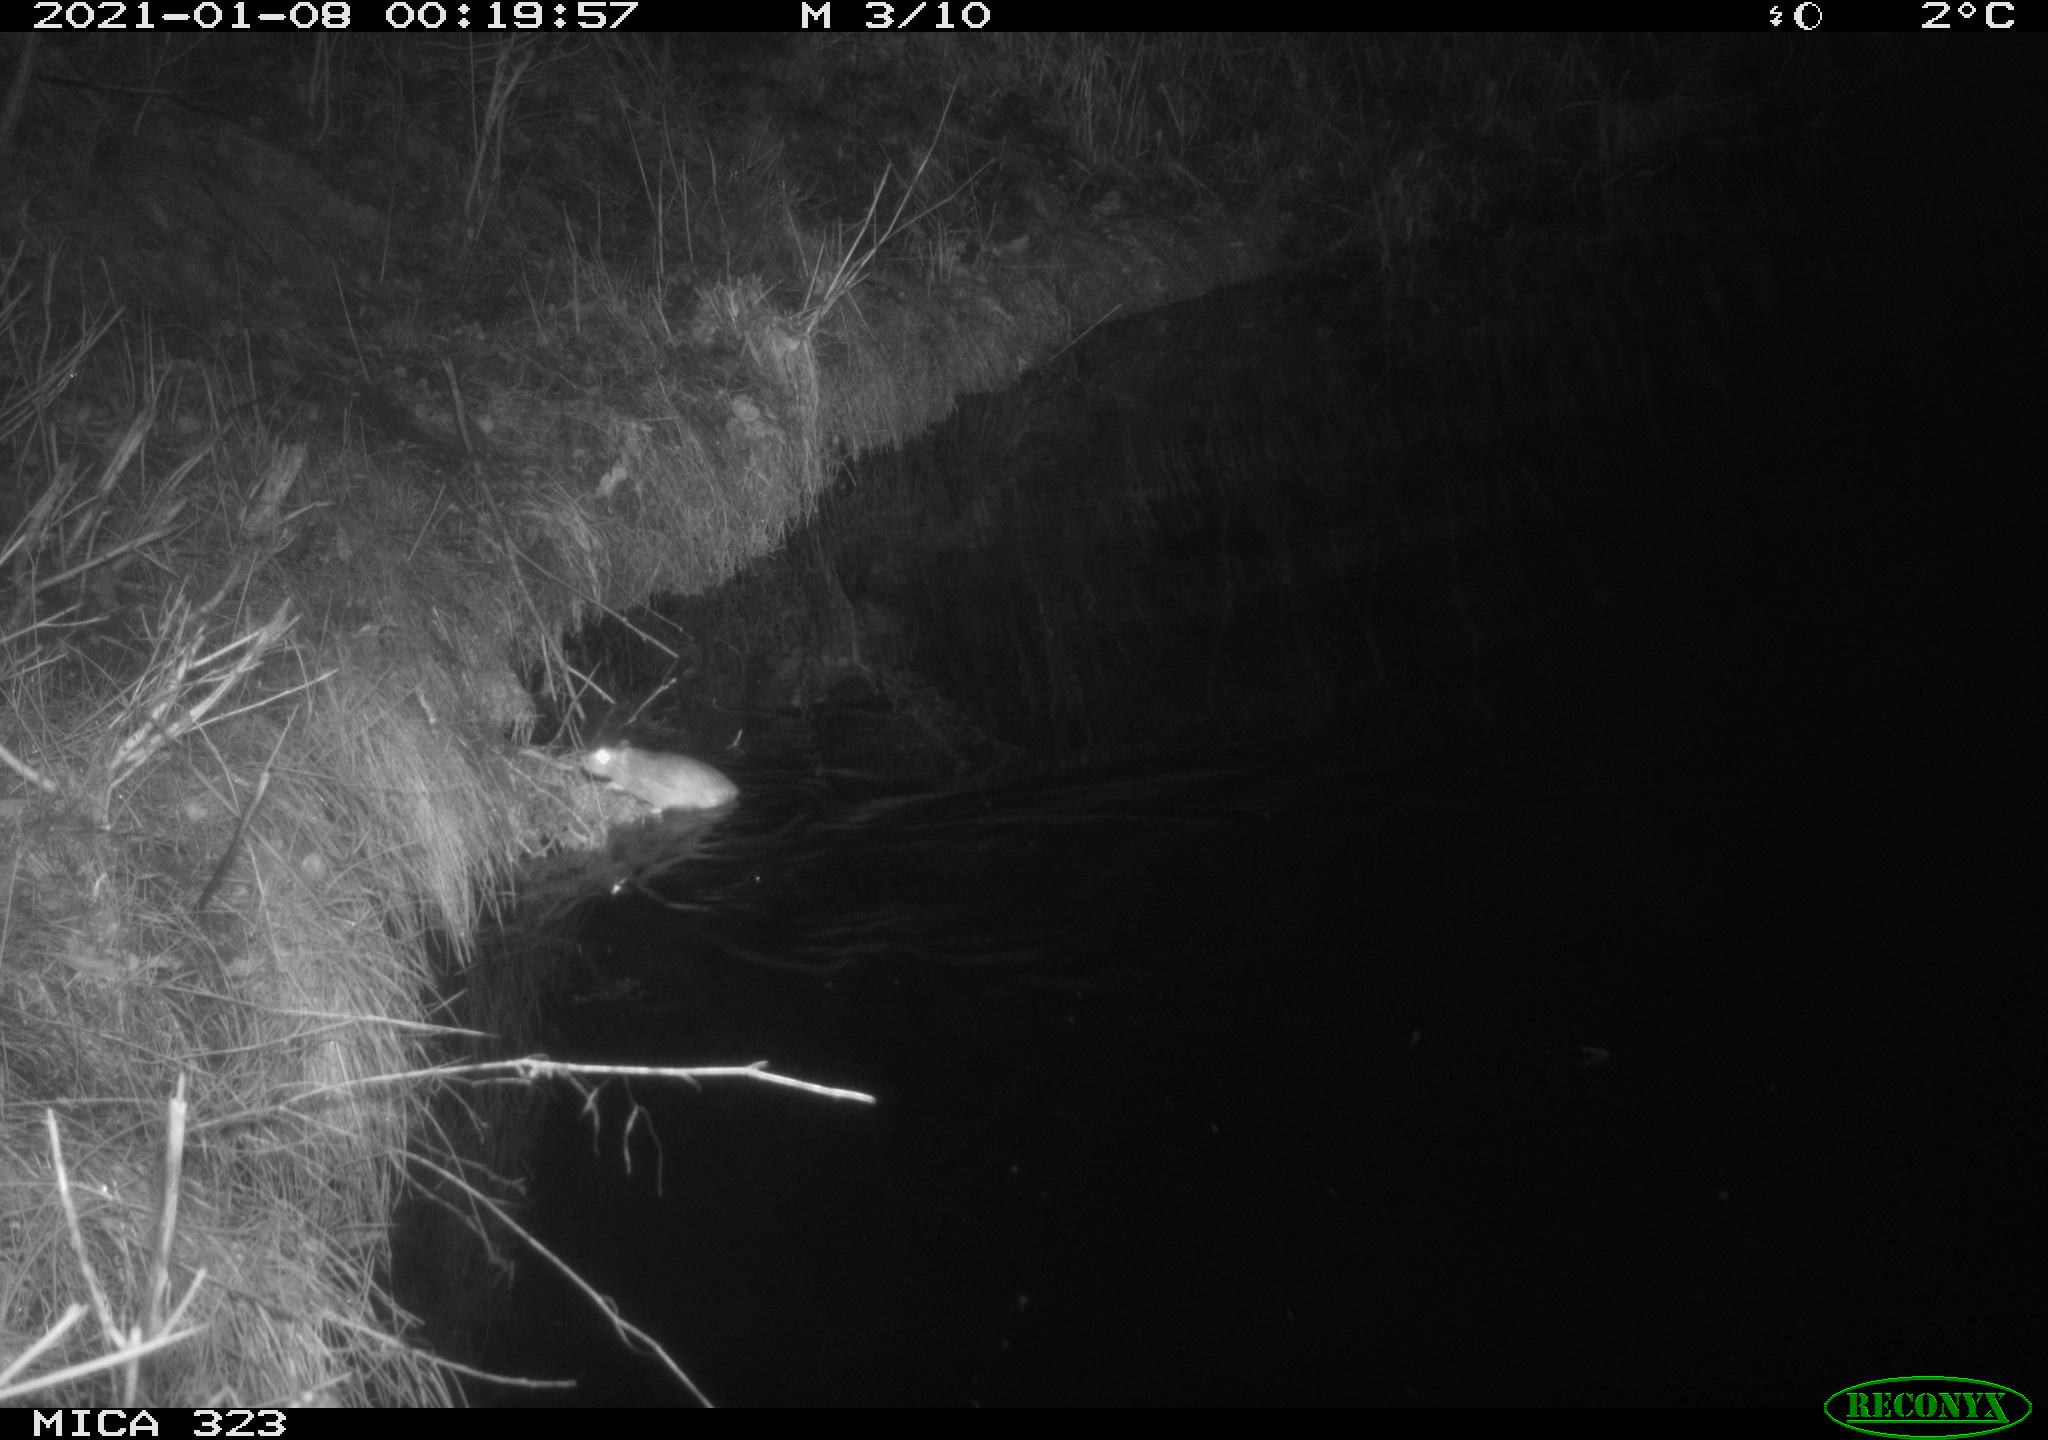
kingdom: Animalia
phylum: Chordata
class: Mammalia
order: Rodentia
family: Muridae
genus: Rattus
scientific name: Rattus norvegicus
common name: Brown rat
